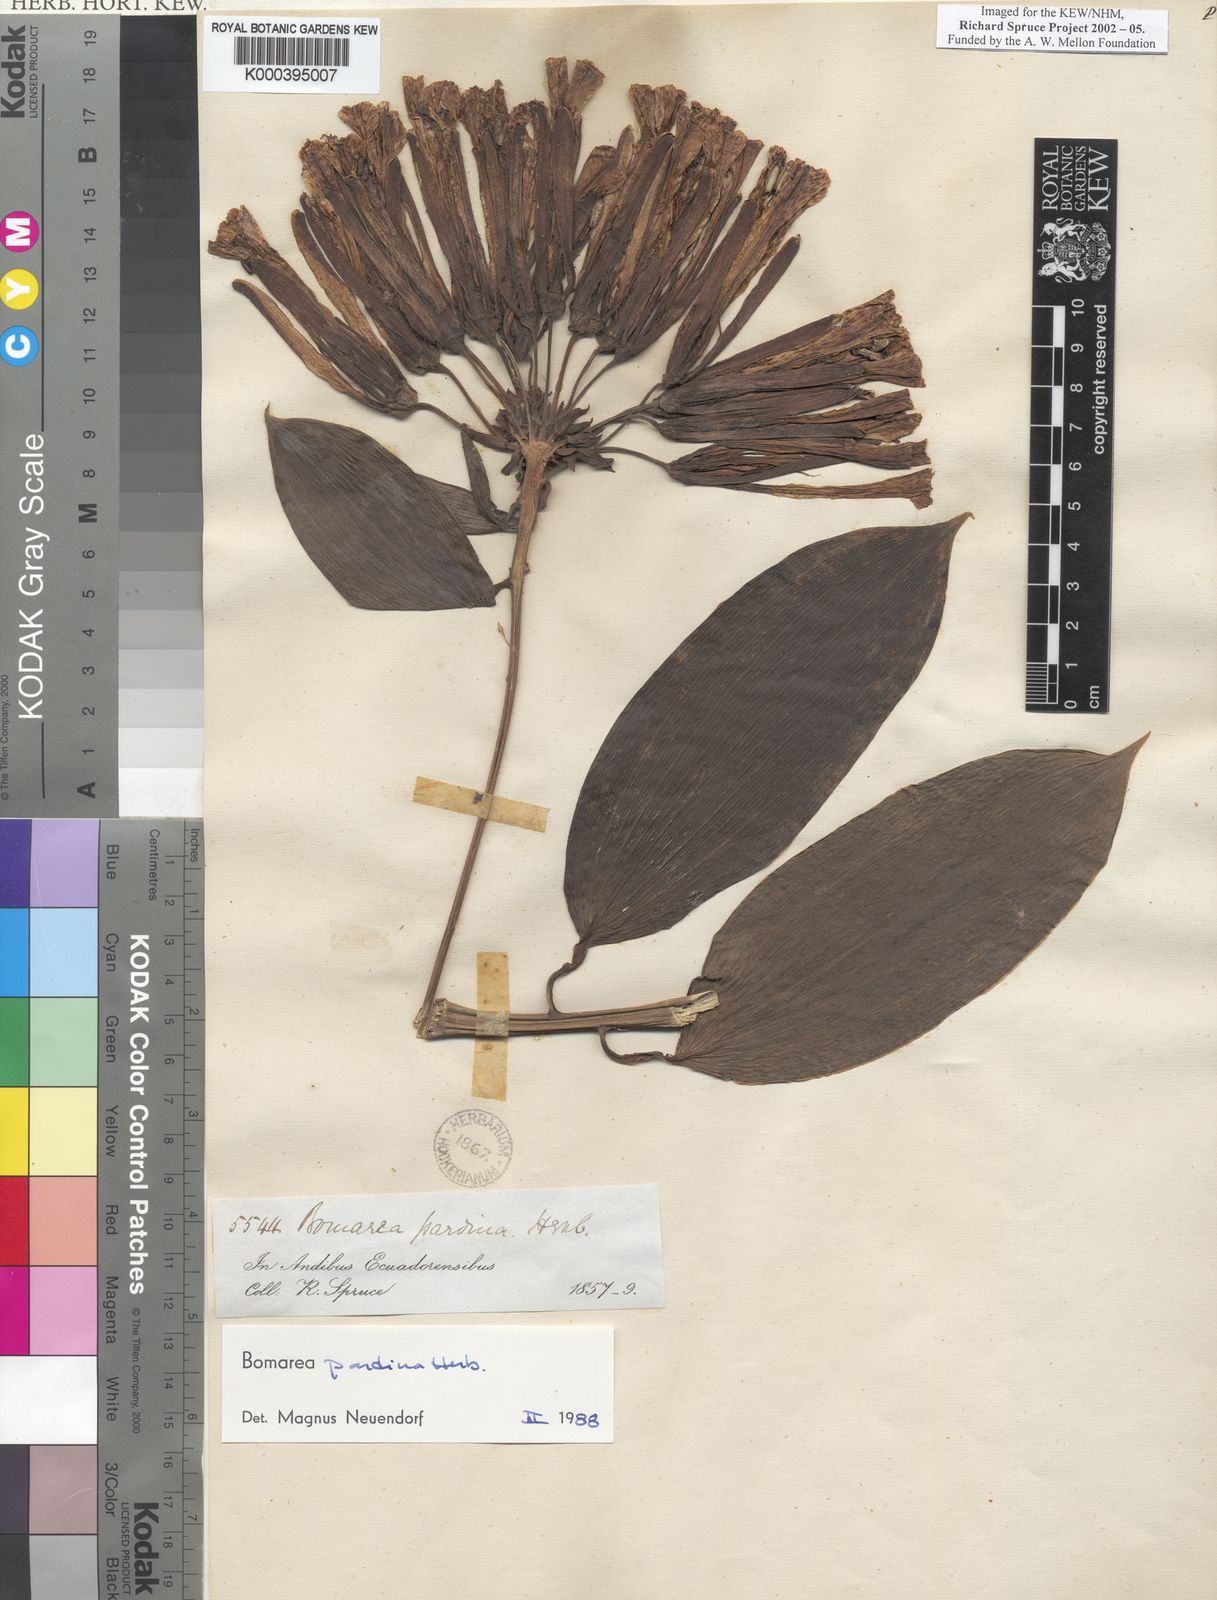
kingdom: Plantae
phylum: Tracheophyta
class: Liliopsida
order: Liliales
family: Alstroemeriaceae
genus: Bomarea
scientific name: Bomarea pardina
